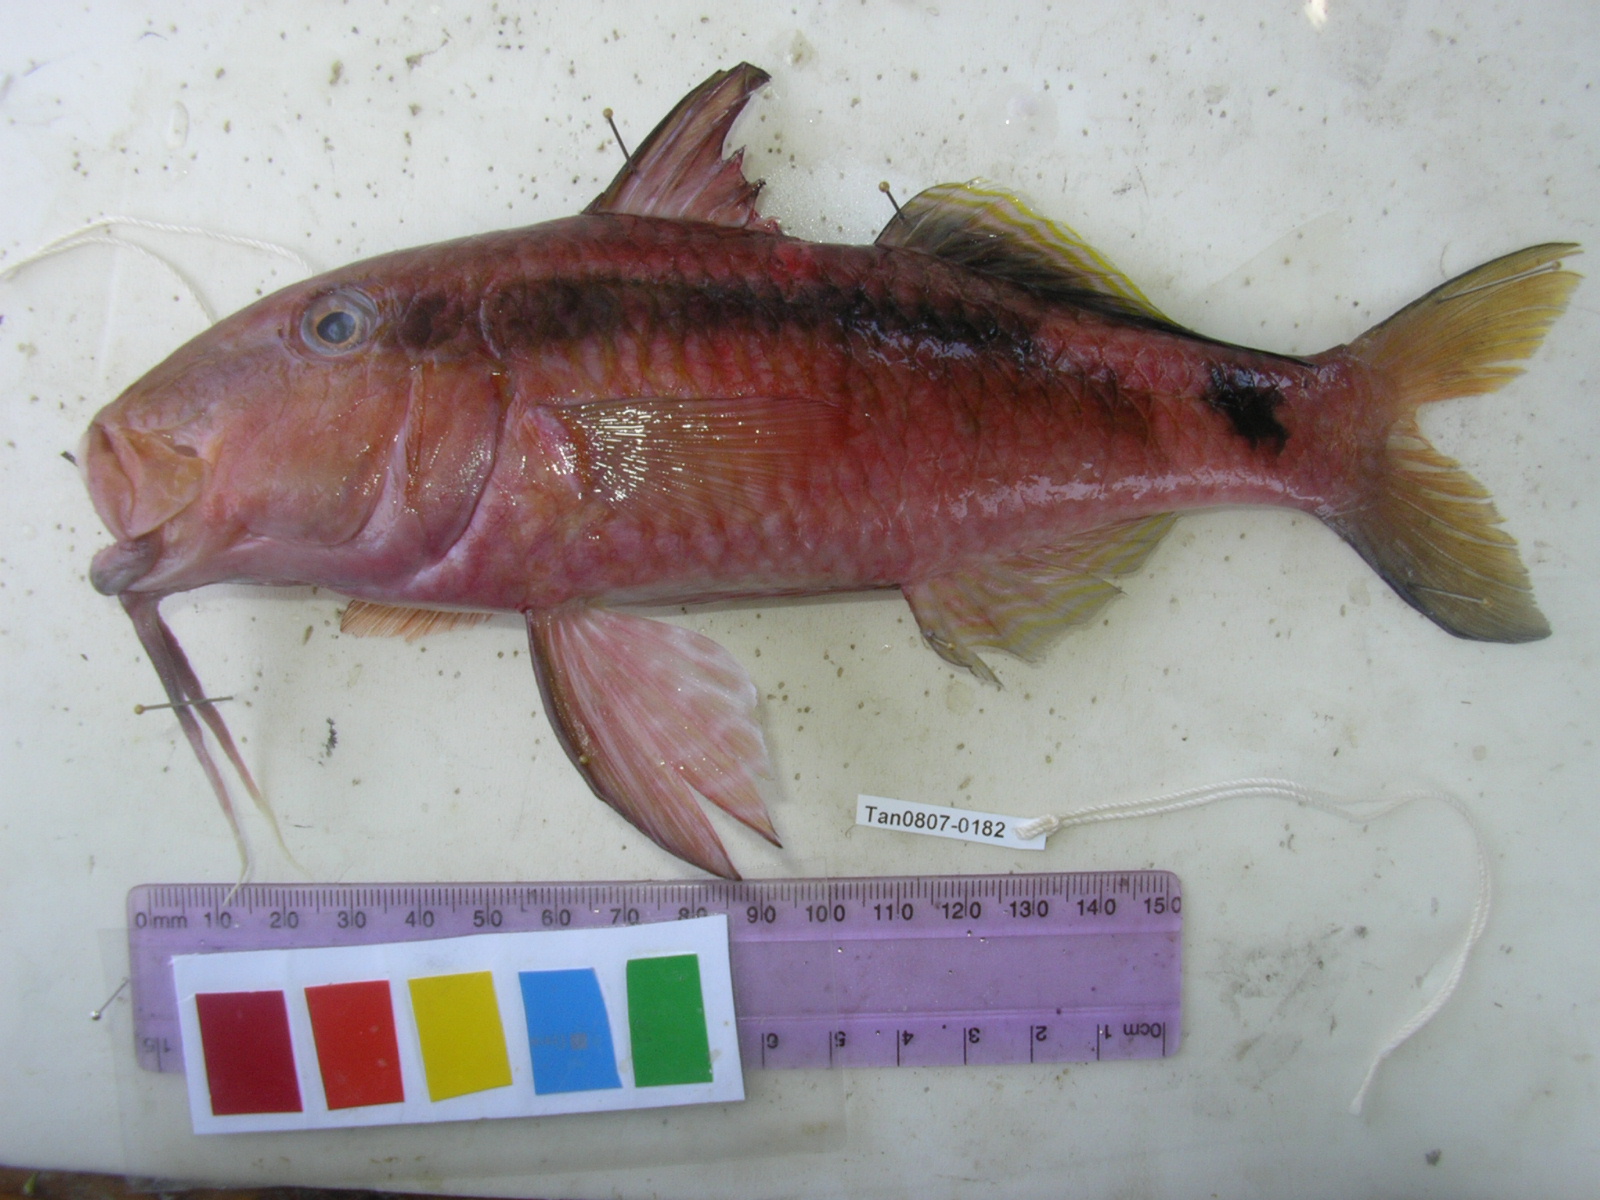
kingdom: Animalia
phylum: Chordata
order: Perciformes
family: Mullidae
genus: Parupeneus
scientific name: Parupeneus macronemus
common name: Long-barbel goatfish
